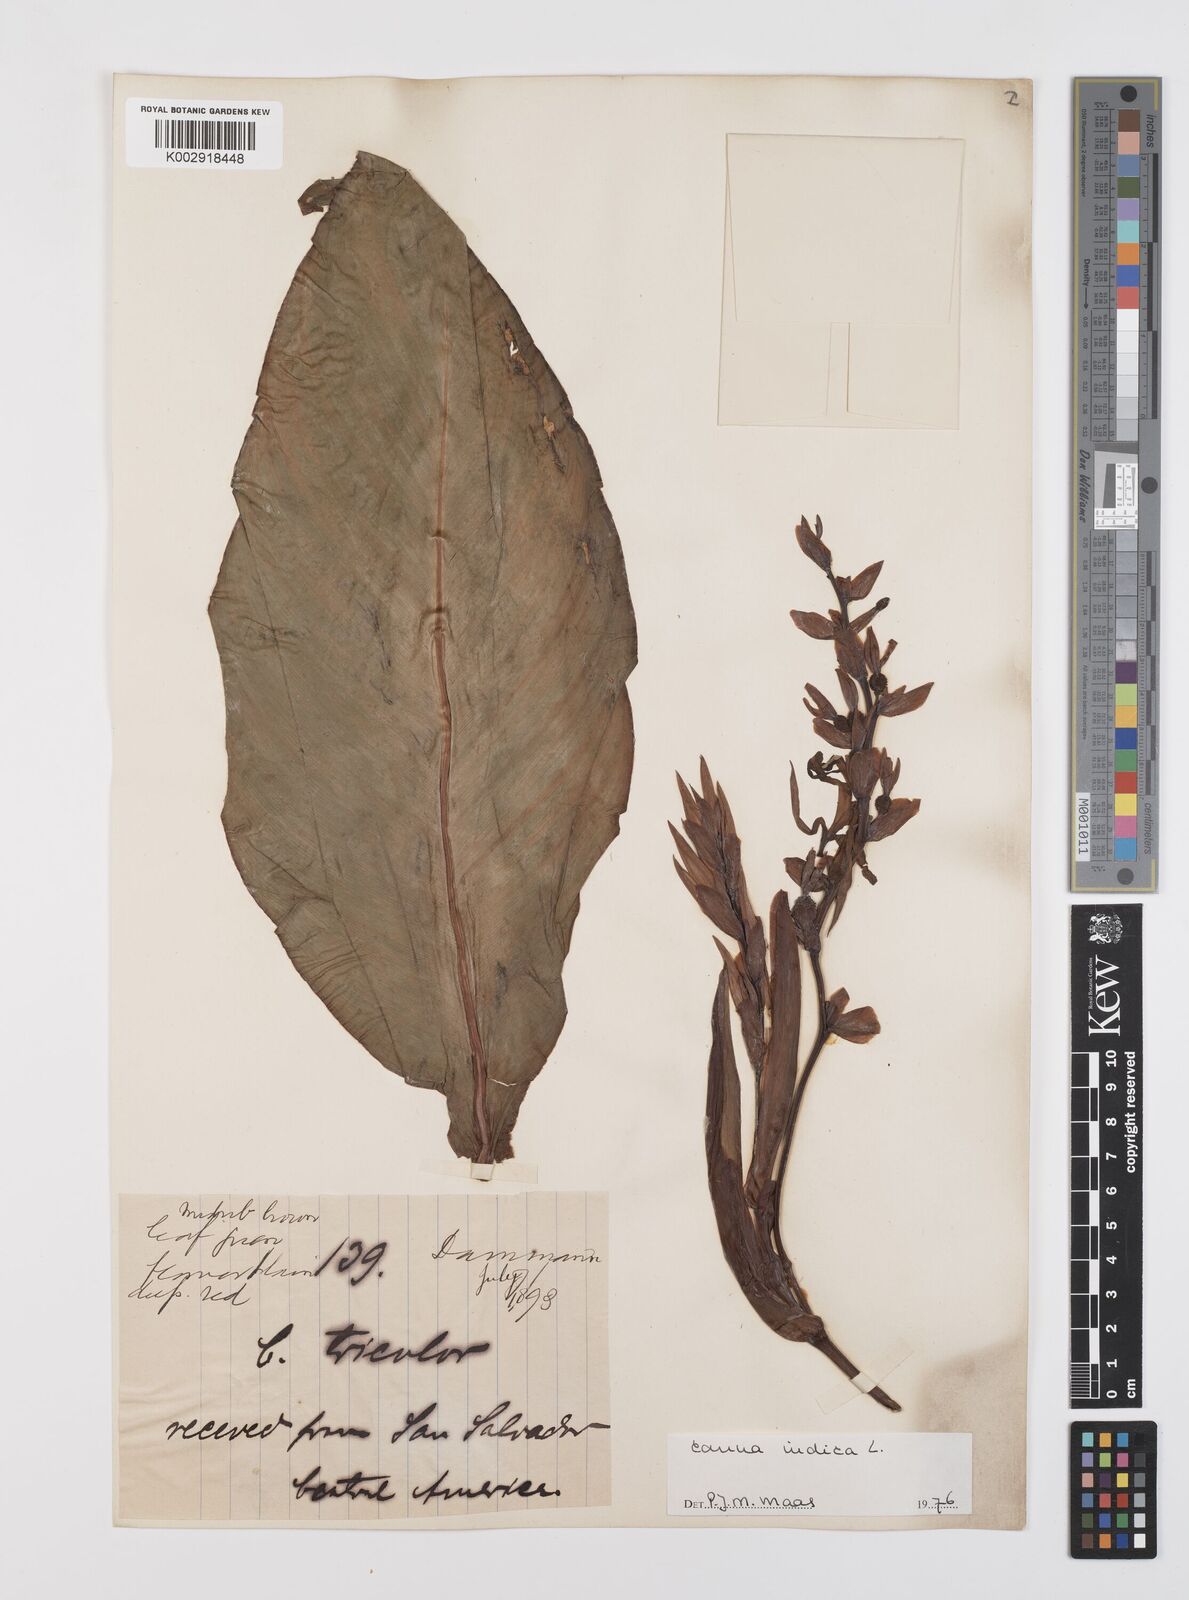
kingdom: Plantae
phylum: Tracheophyta
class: Liliopsida
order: Zingiberales
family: Cannaceae
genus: Canna
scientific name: Canna indica
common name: Indian shot
